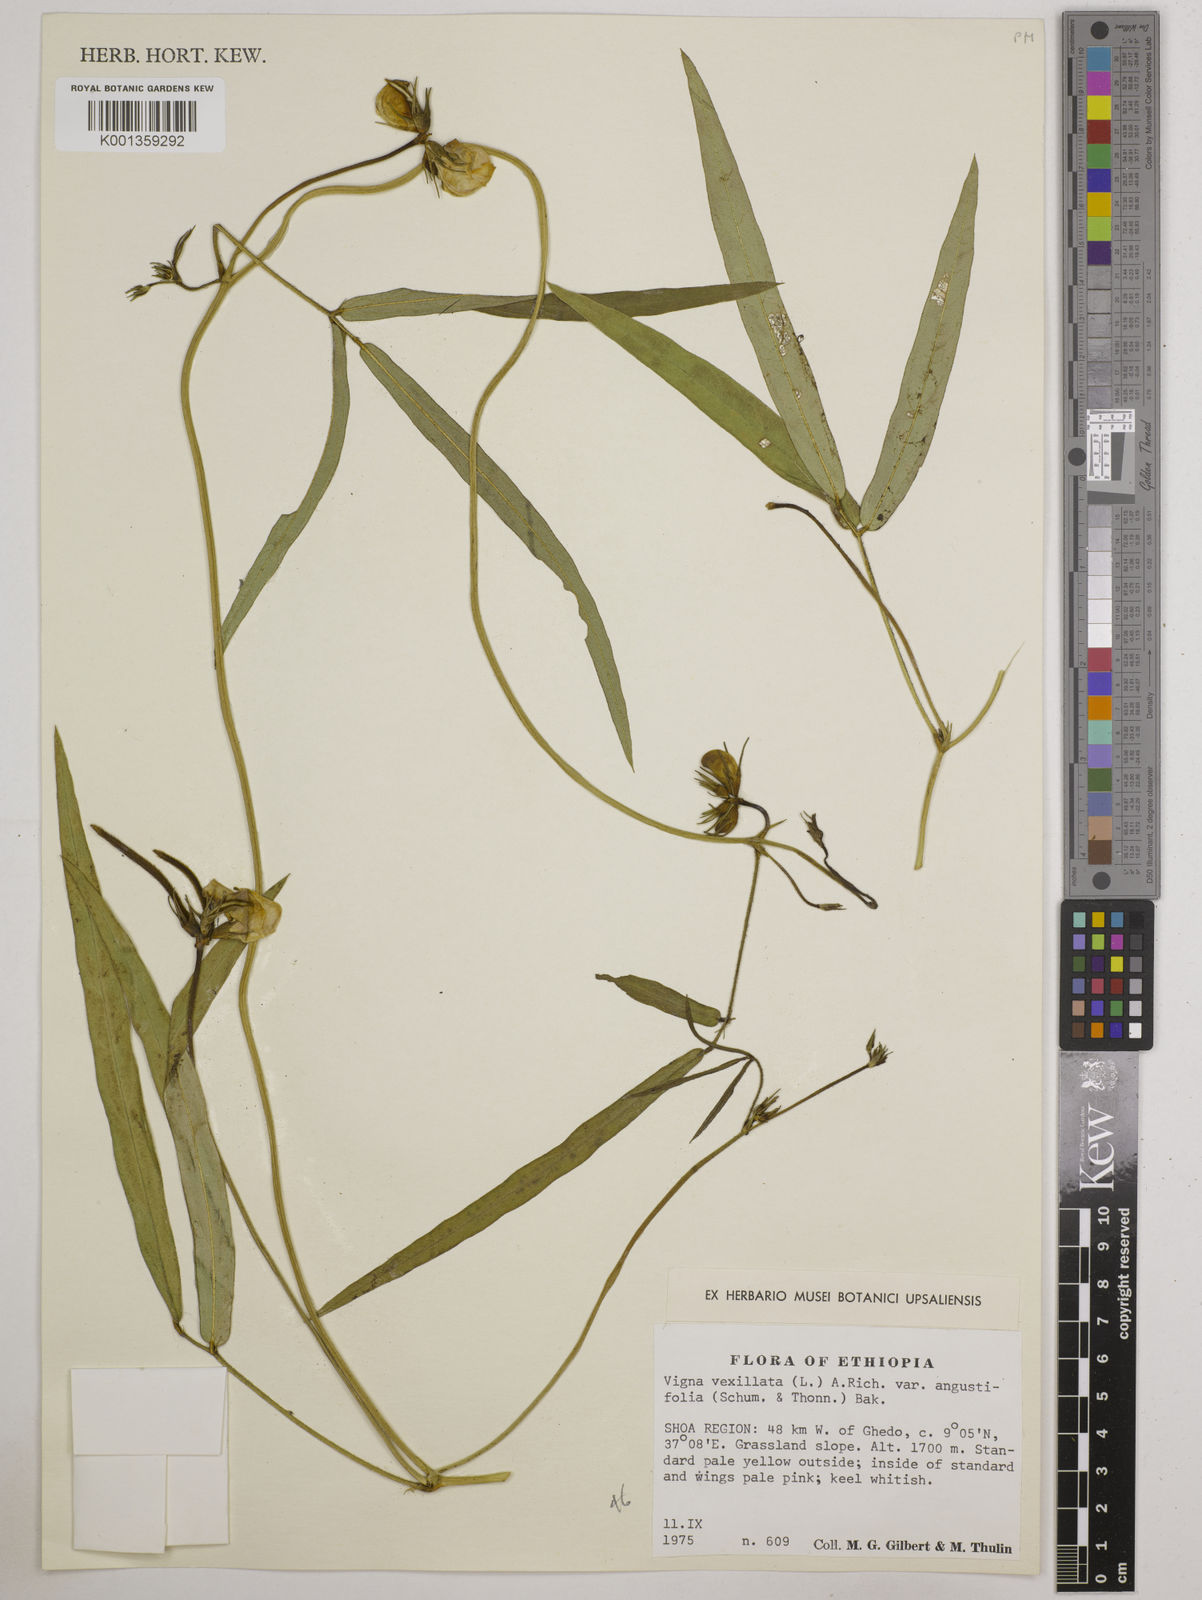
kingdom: Plantae
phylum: Tracheophyta
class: Magnoliopsida
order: Fabales
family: Fabaceae
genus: Vigna
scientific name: Vigna vexillata
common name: Zombi pea
